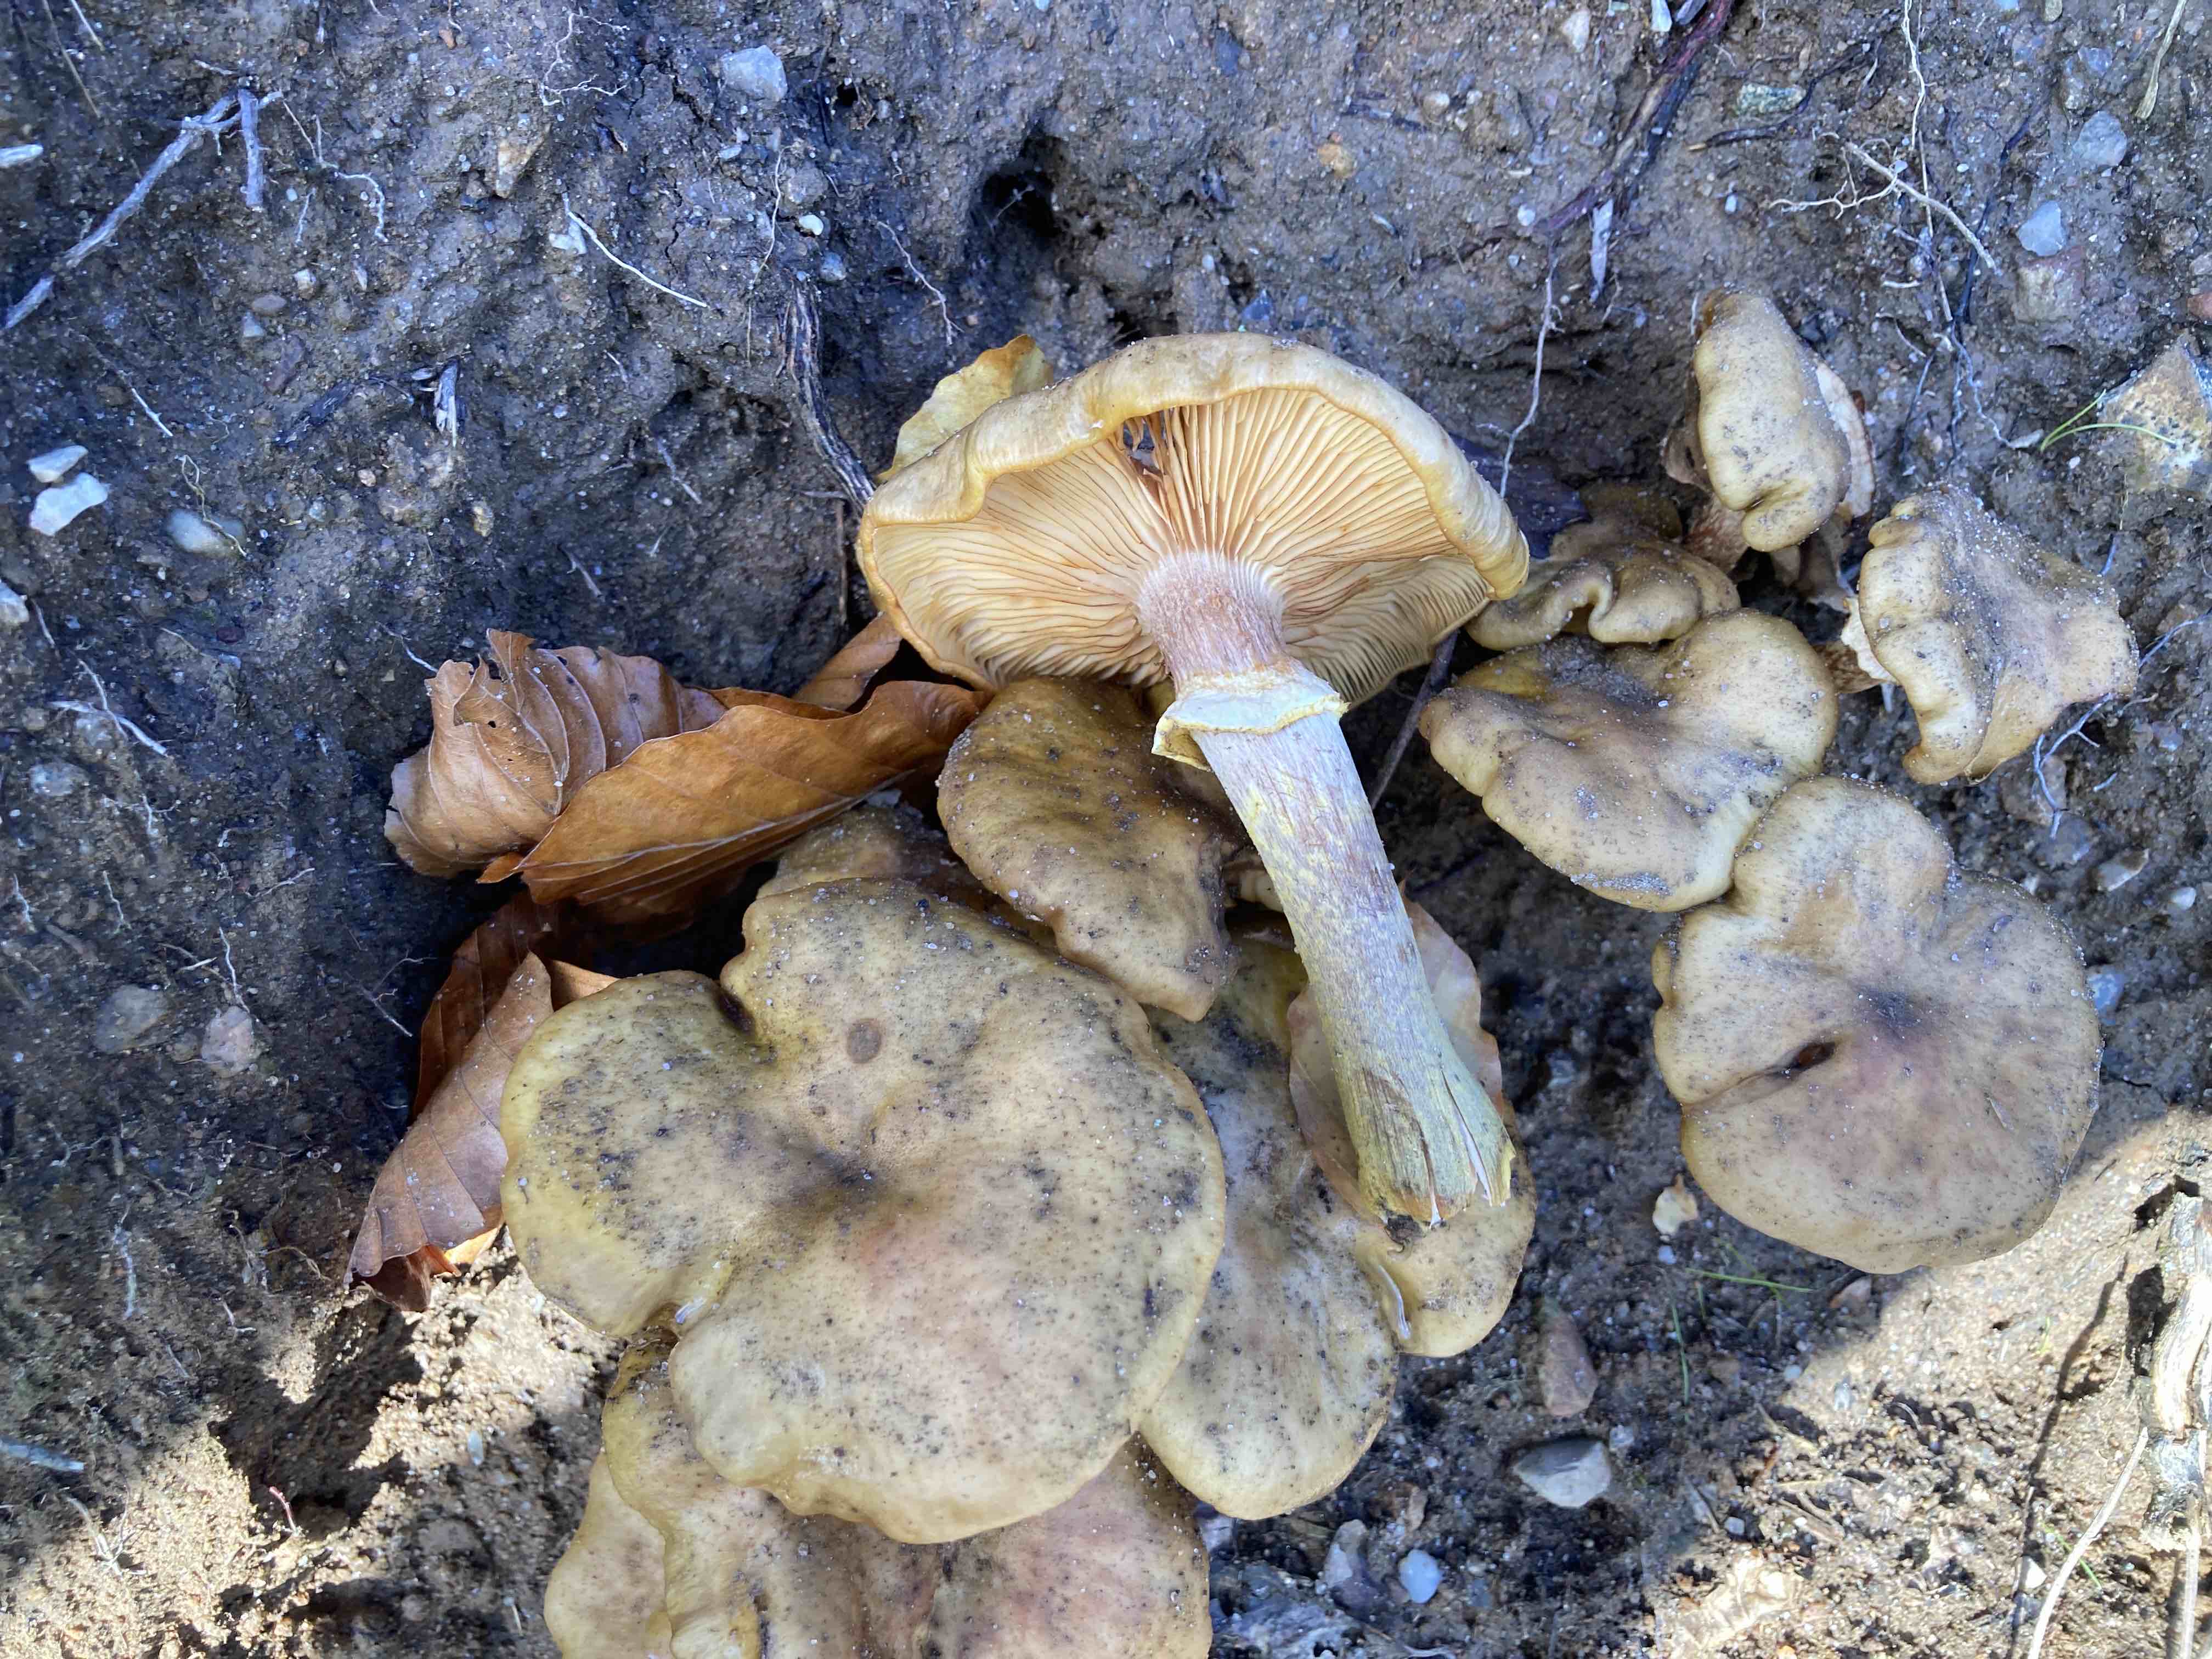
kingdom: Fungi
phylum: Basidiomycota
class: Agaricomycetes
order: Agaricales
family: Physalacriaceae
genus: Armillaria
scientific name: Armillaria mellea
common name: ægte honningsvamp
